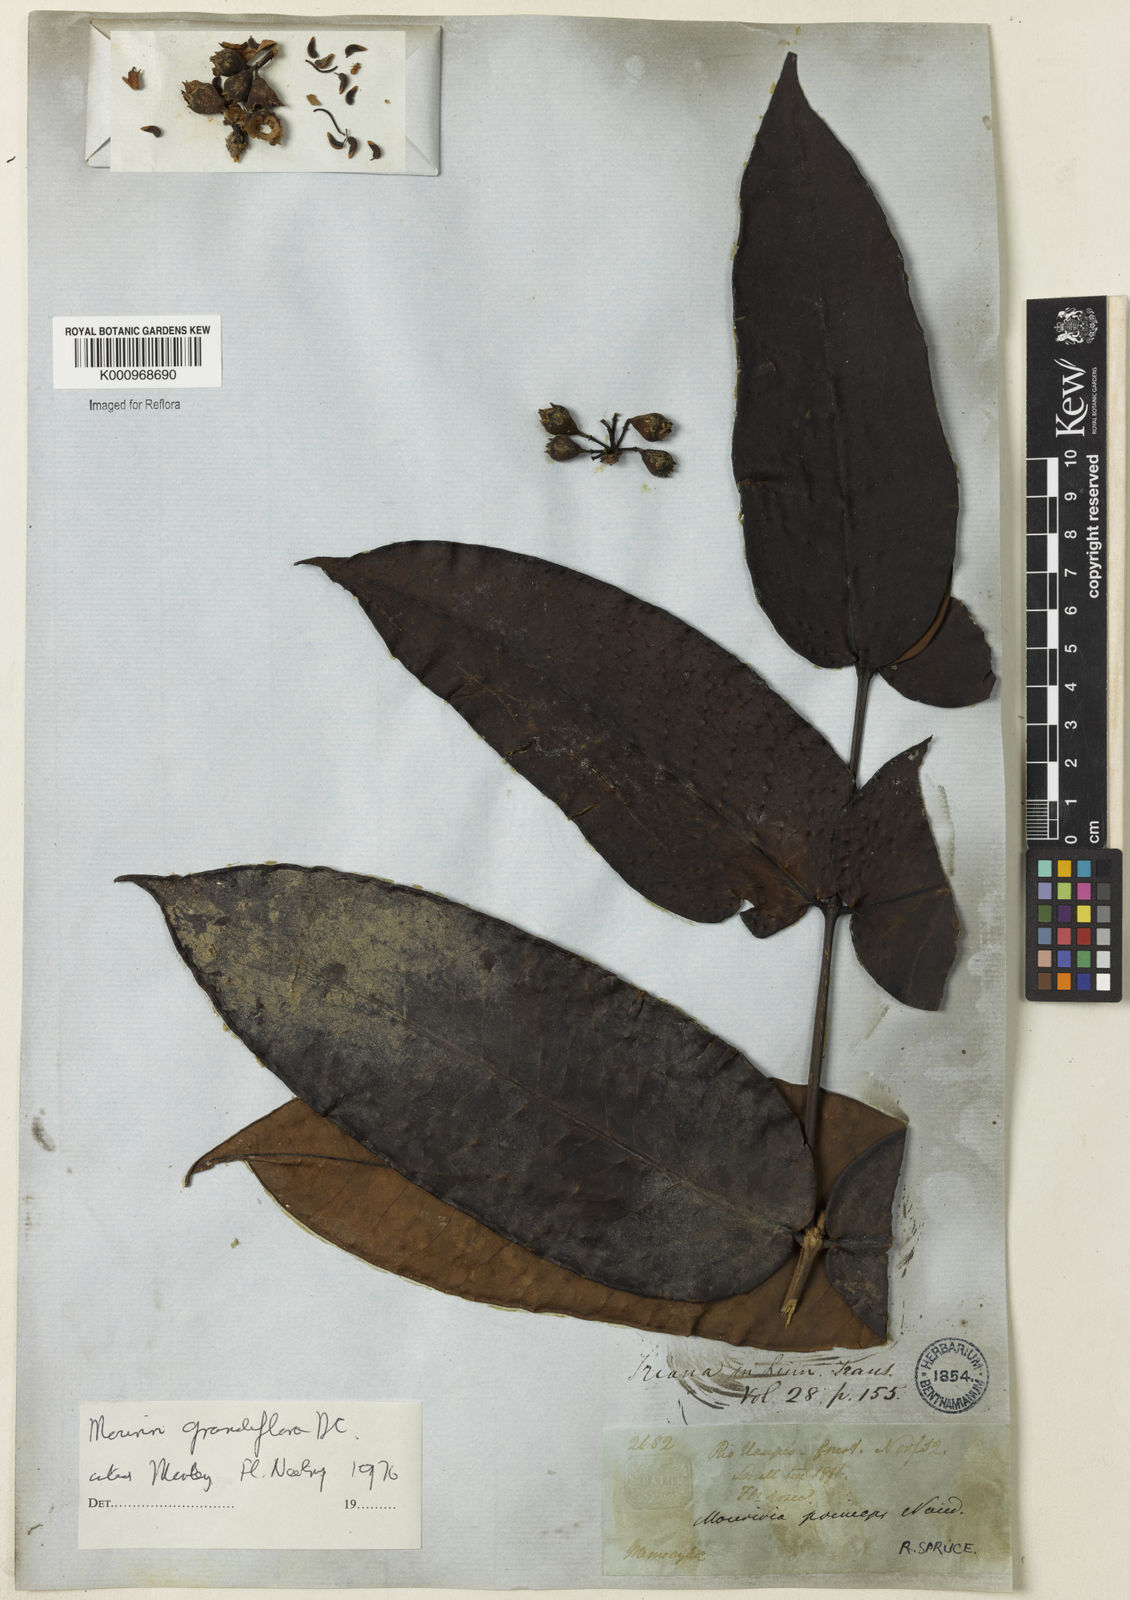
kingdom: Plantae
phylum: Tracheophyta
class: Magnoliopsida
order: Myrtales
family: Melastomataceae
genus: Mouriri
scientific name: Mouriri grandiflora
